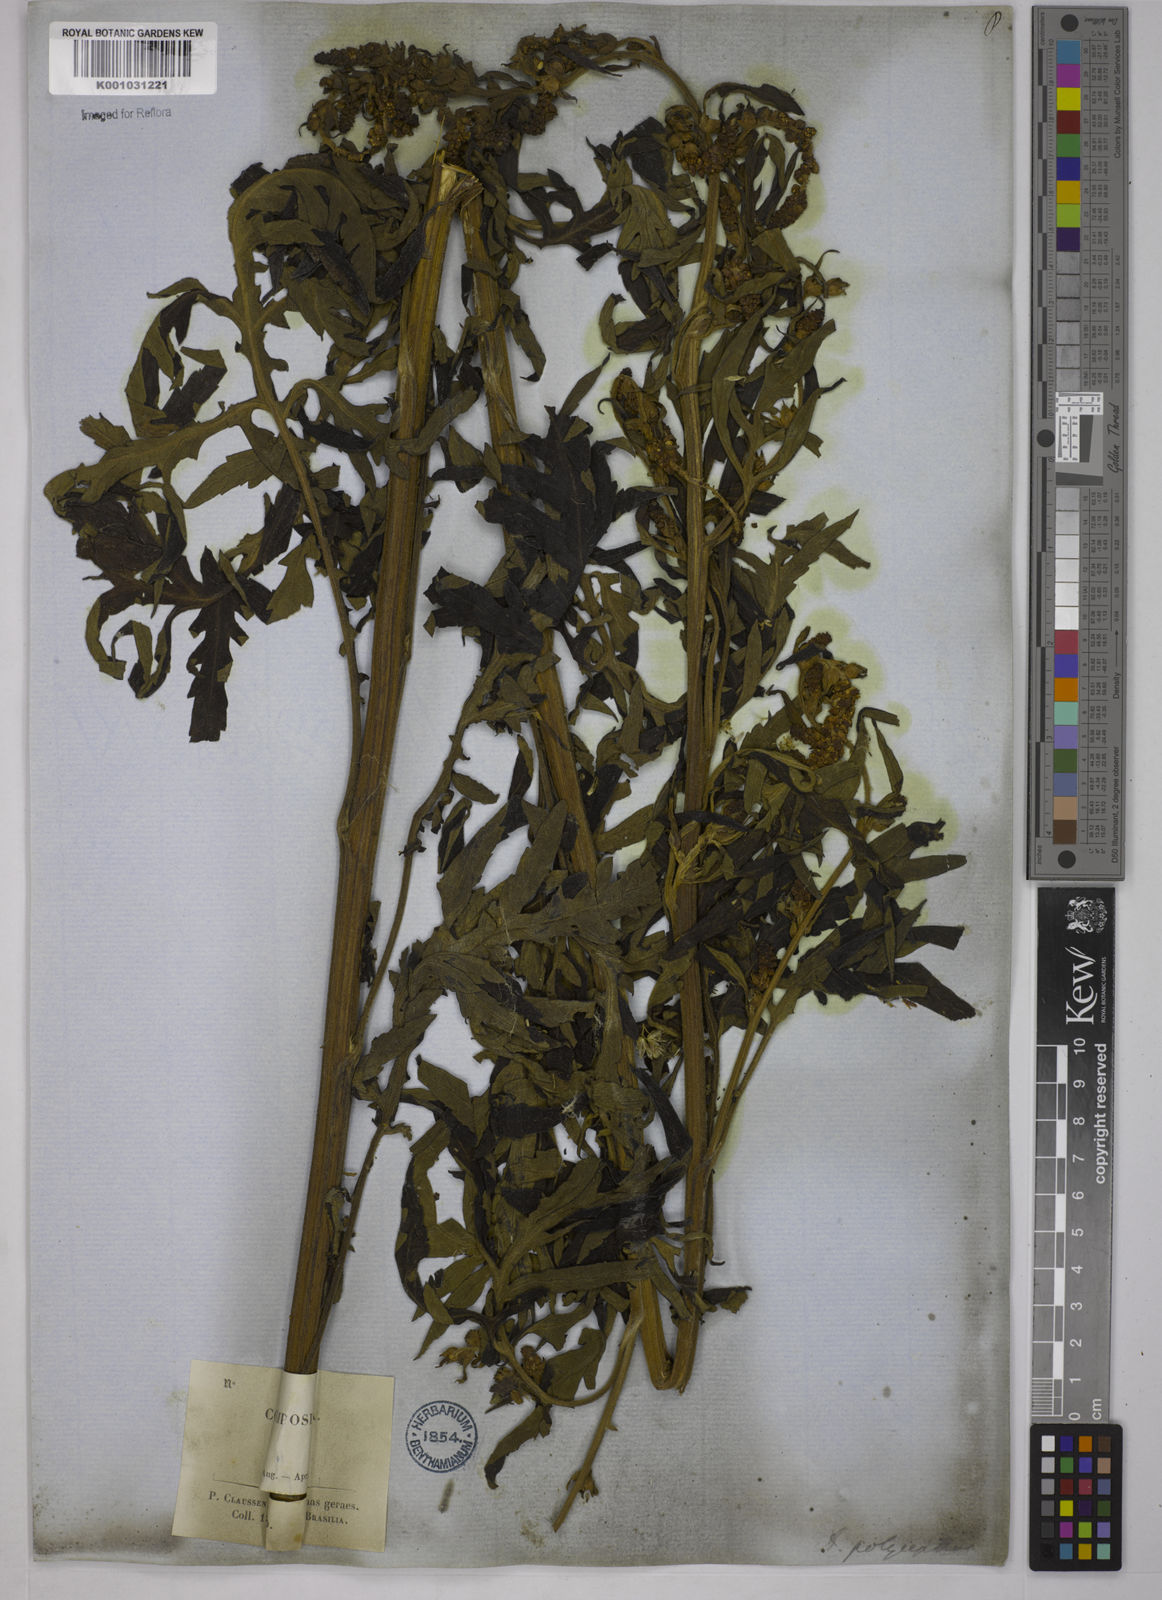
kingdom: Plantae
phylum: Tracheophyta
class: Magnoliopsida
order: Asterales
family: Asteraceae
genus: Ambrosia
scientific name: Ambrosia polystachya
